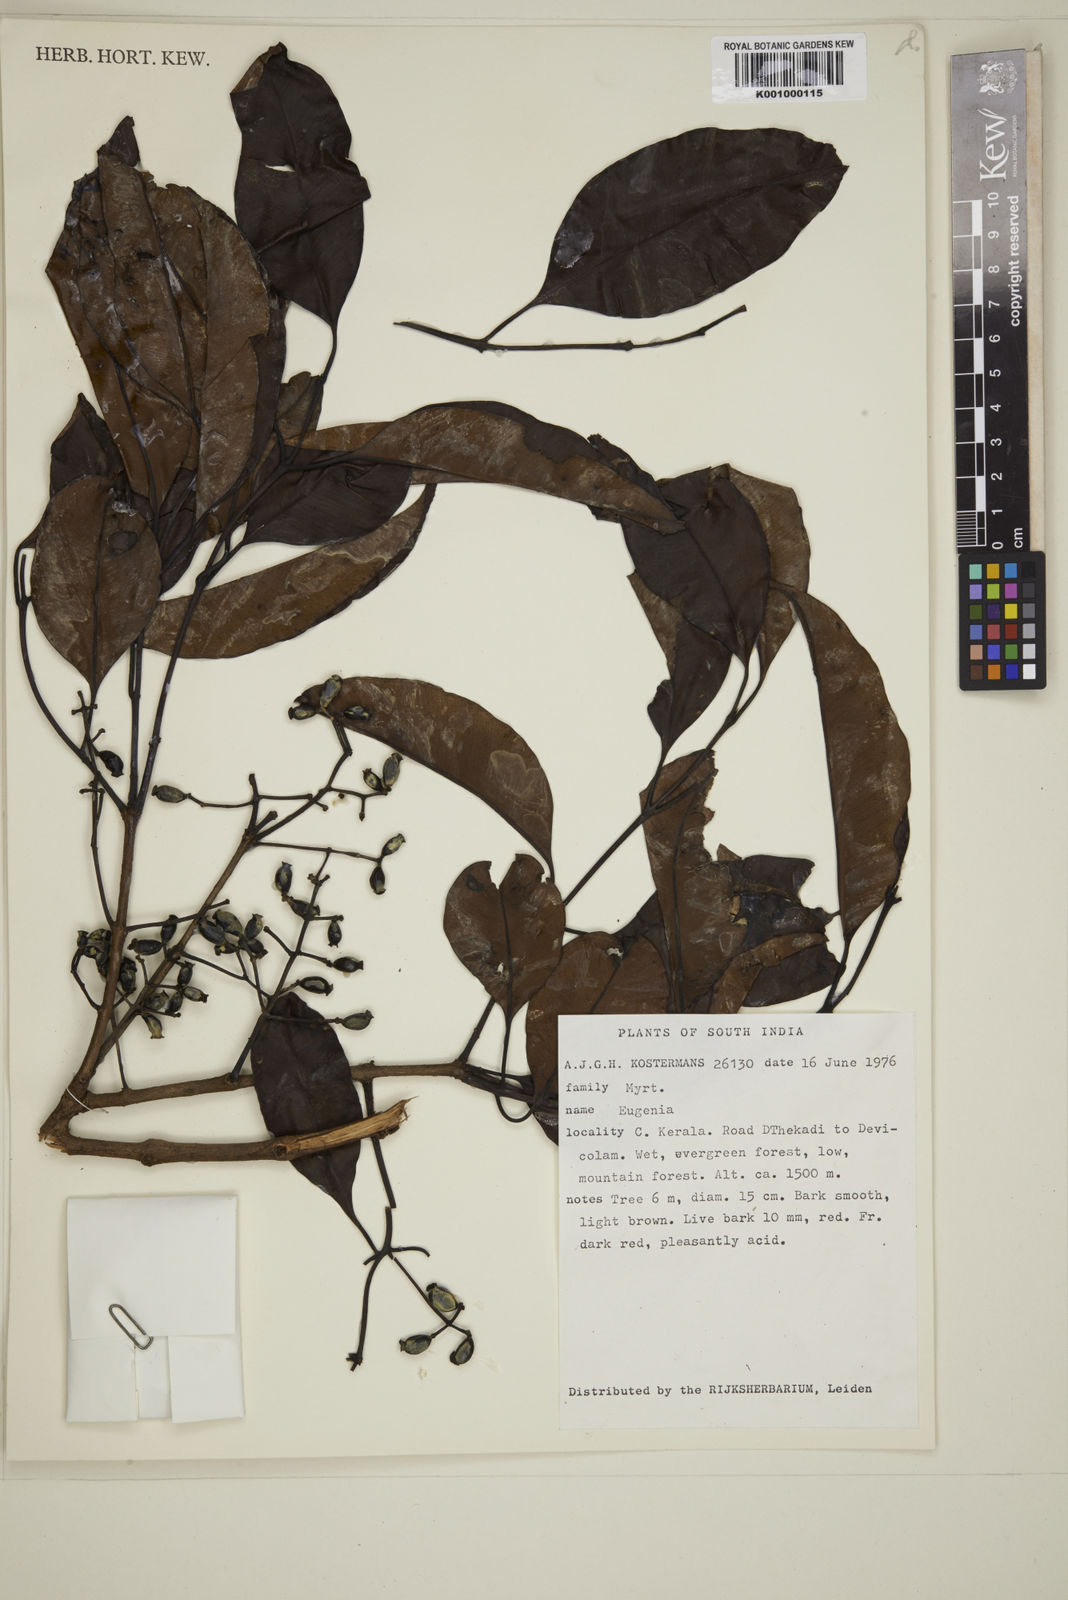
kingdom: Plantae
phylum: Tracheophyta
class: Magnoliopsida
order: Myrtales
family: Myrtaceae
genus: Eugenia
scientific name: Eugenia
